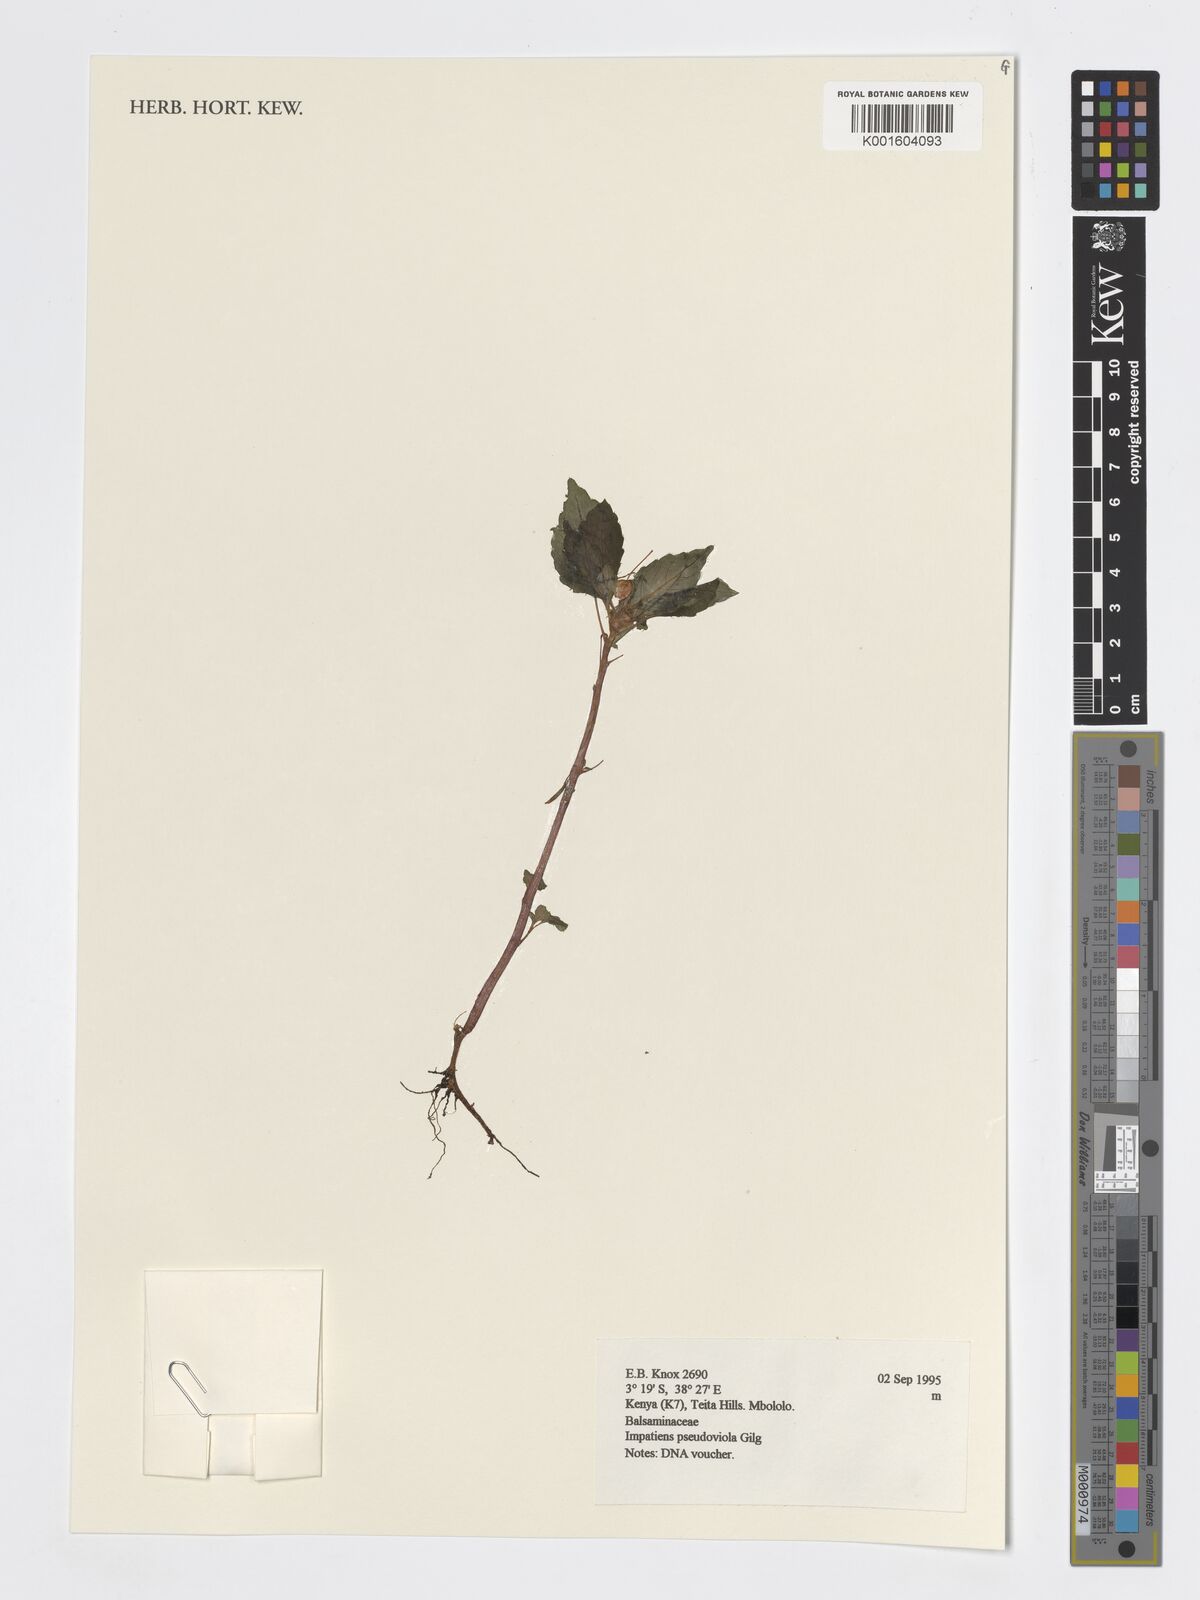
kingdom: Plantae
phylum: Tracheophyta
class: Magnoliopsida
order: Ericales
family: Balsaminaceae
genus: Impatiens
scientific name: Impatiens pseudoviola
